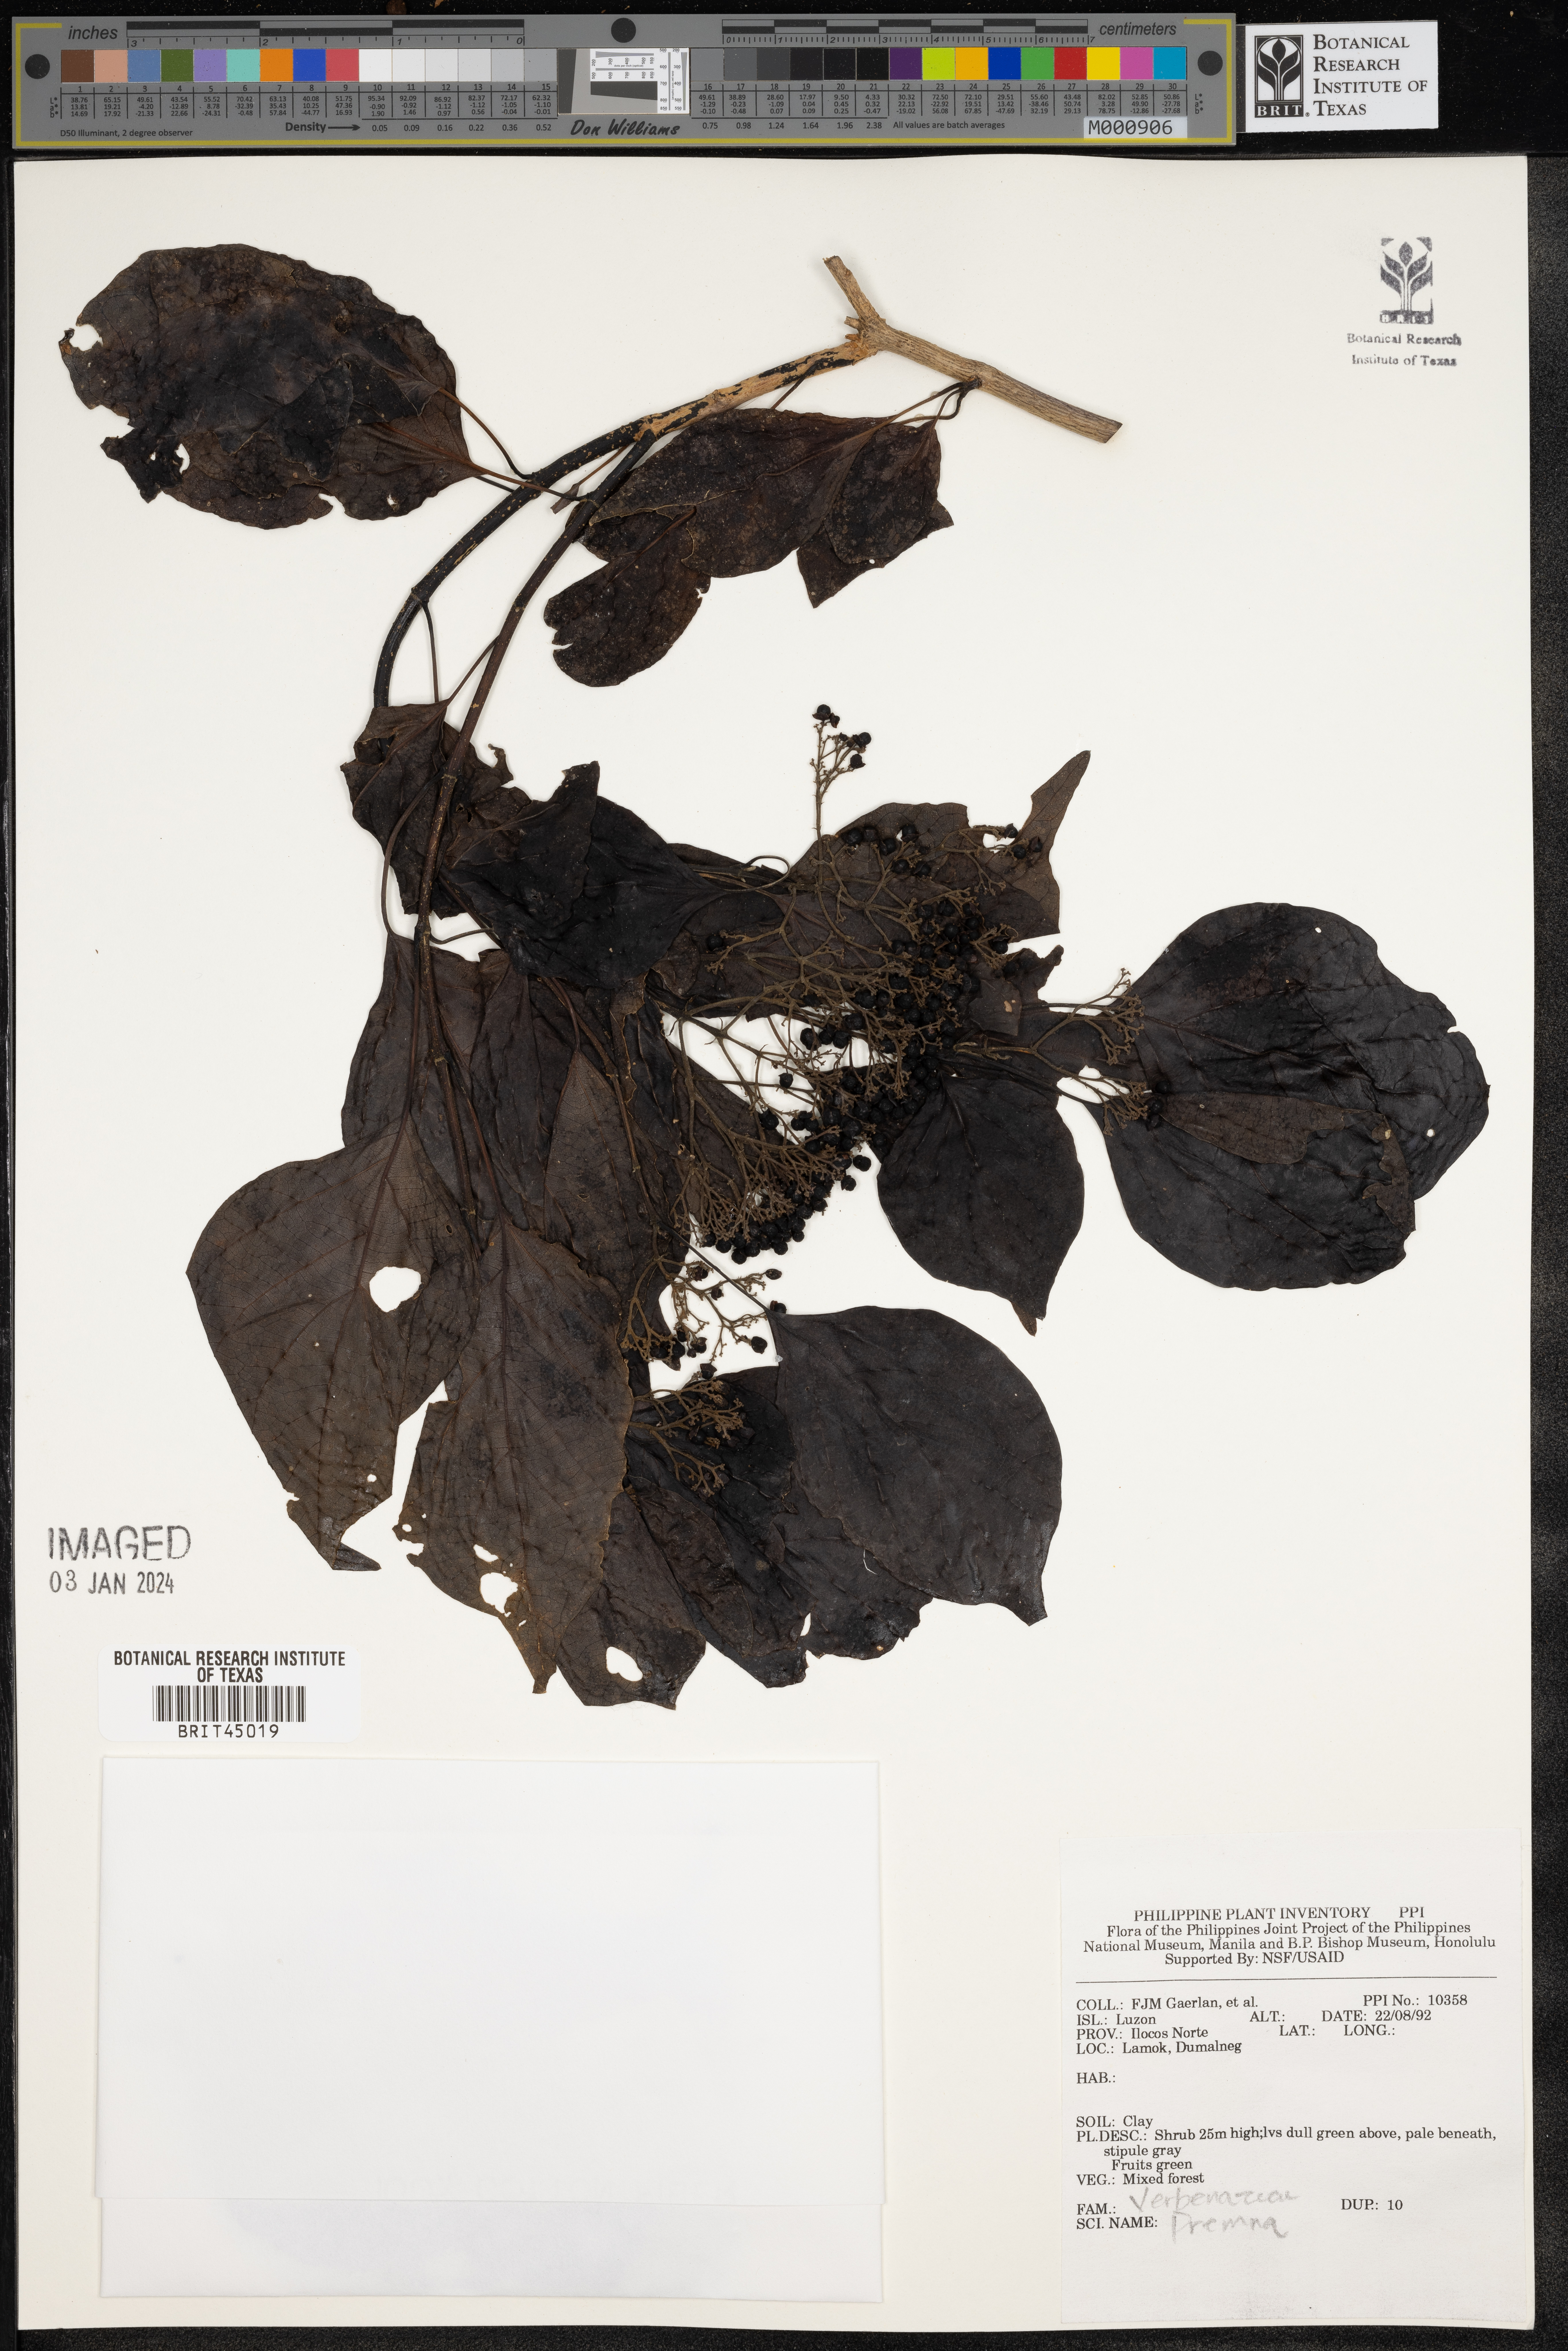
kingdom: Plantae
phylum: Tracheophyta
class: Magnoliopsida
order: Lamiales
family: Lamiaceae
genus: Premna
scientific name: Premna
